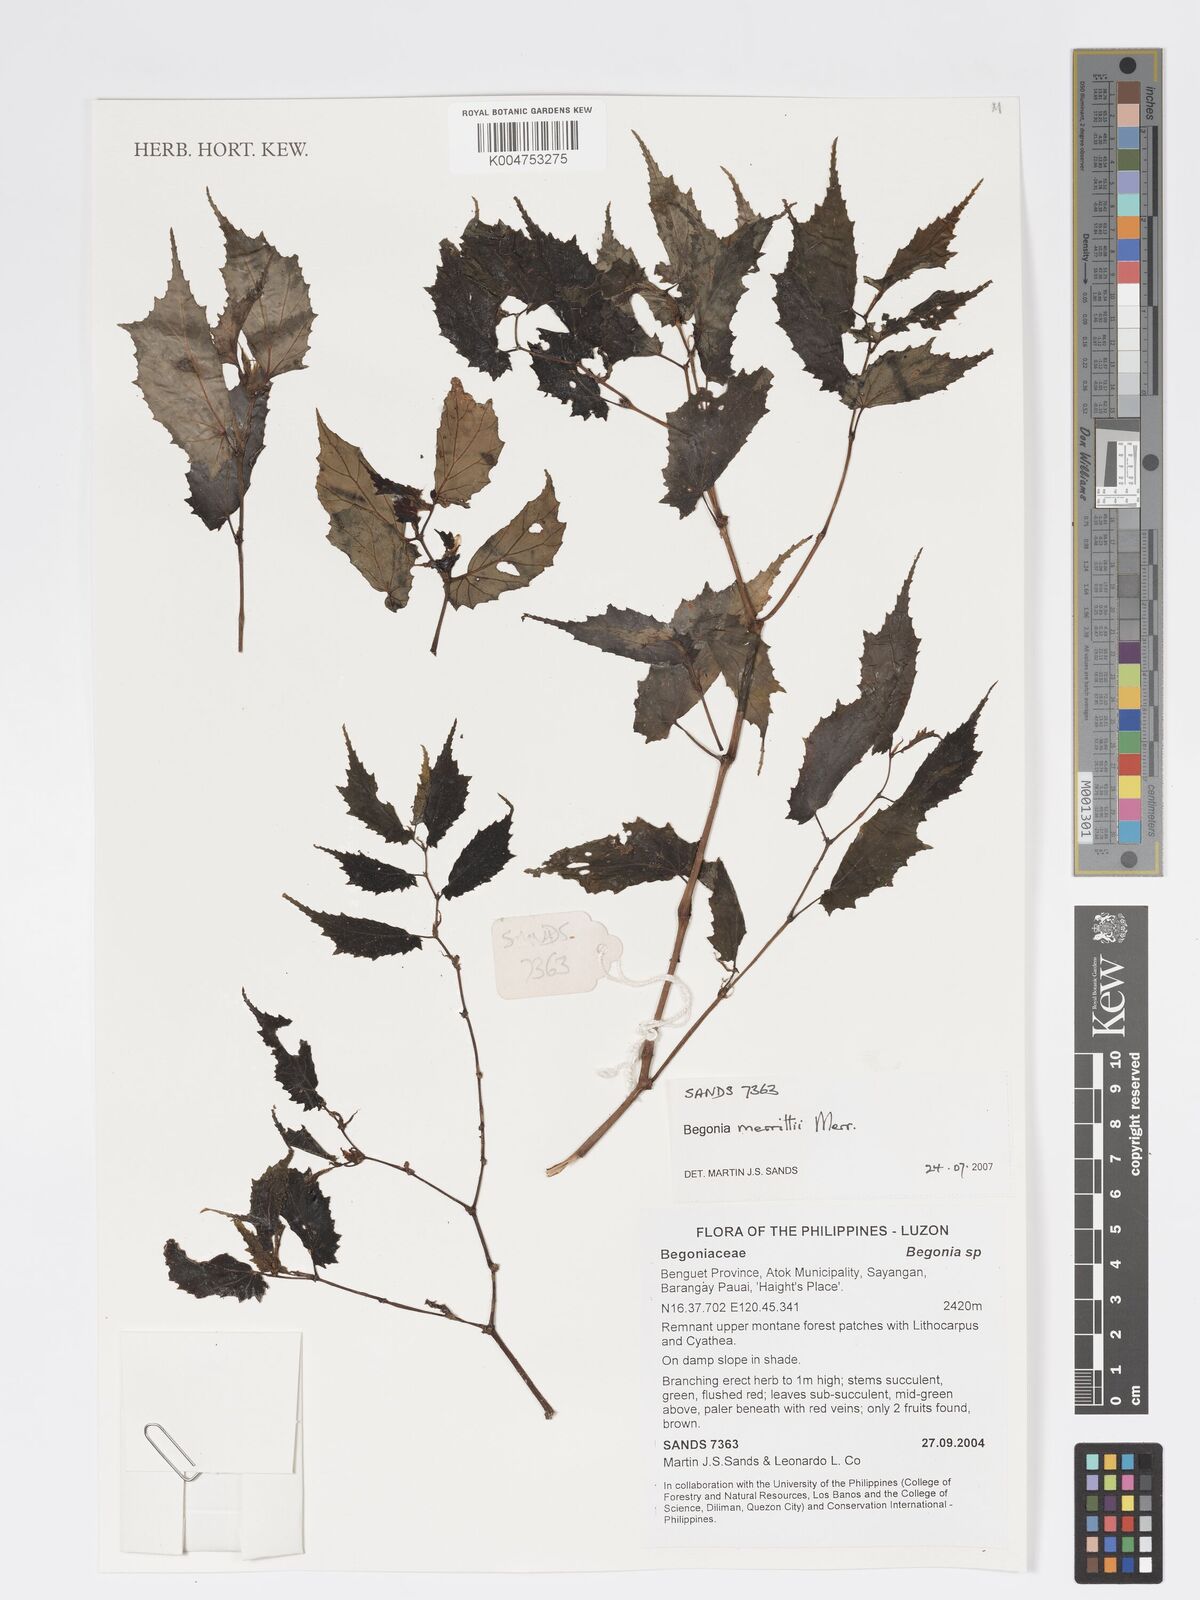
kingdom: Plantae
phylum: Tracheophyta
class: Magnoliopsida
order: Cucurbitales
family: Begoniaceae
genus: Begonia
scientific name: Begonia merrittii
